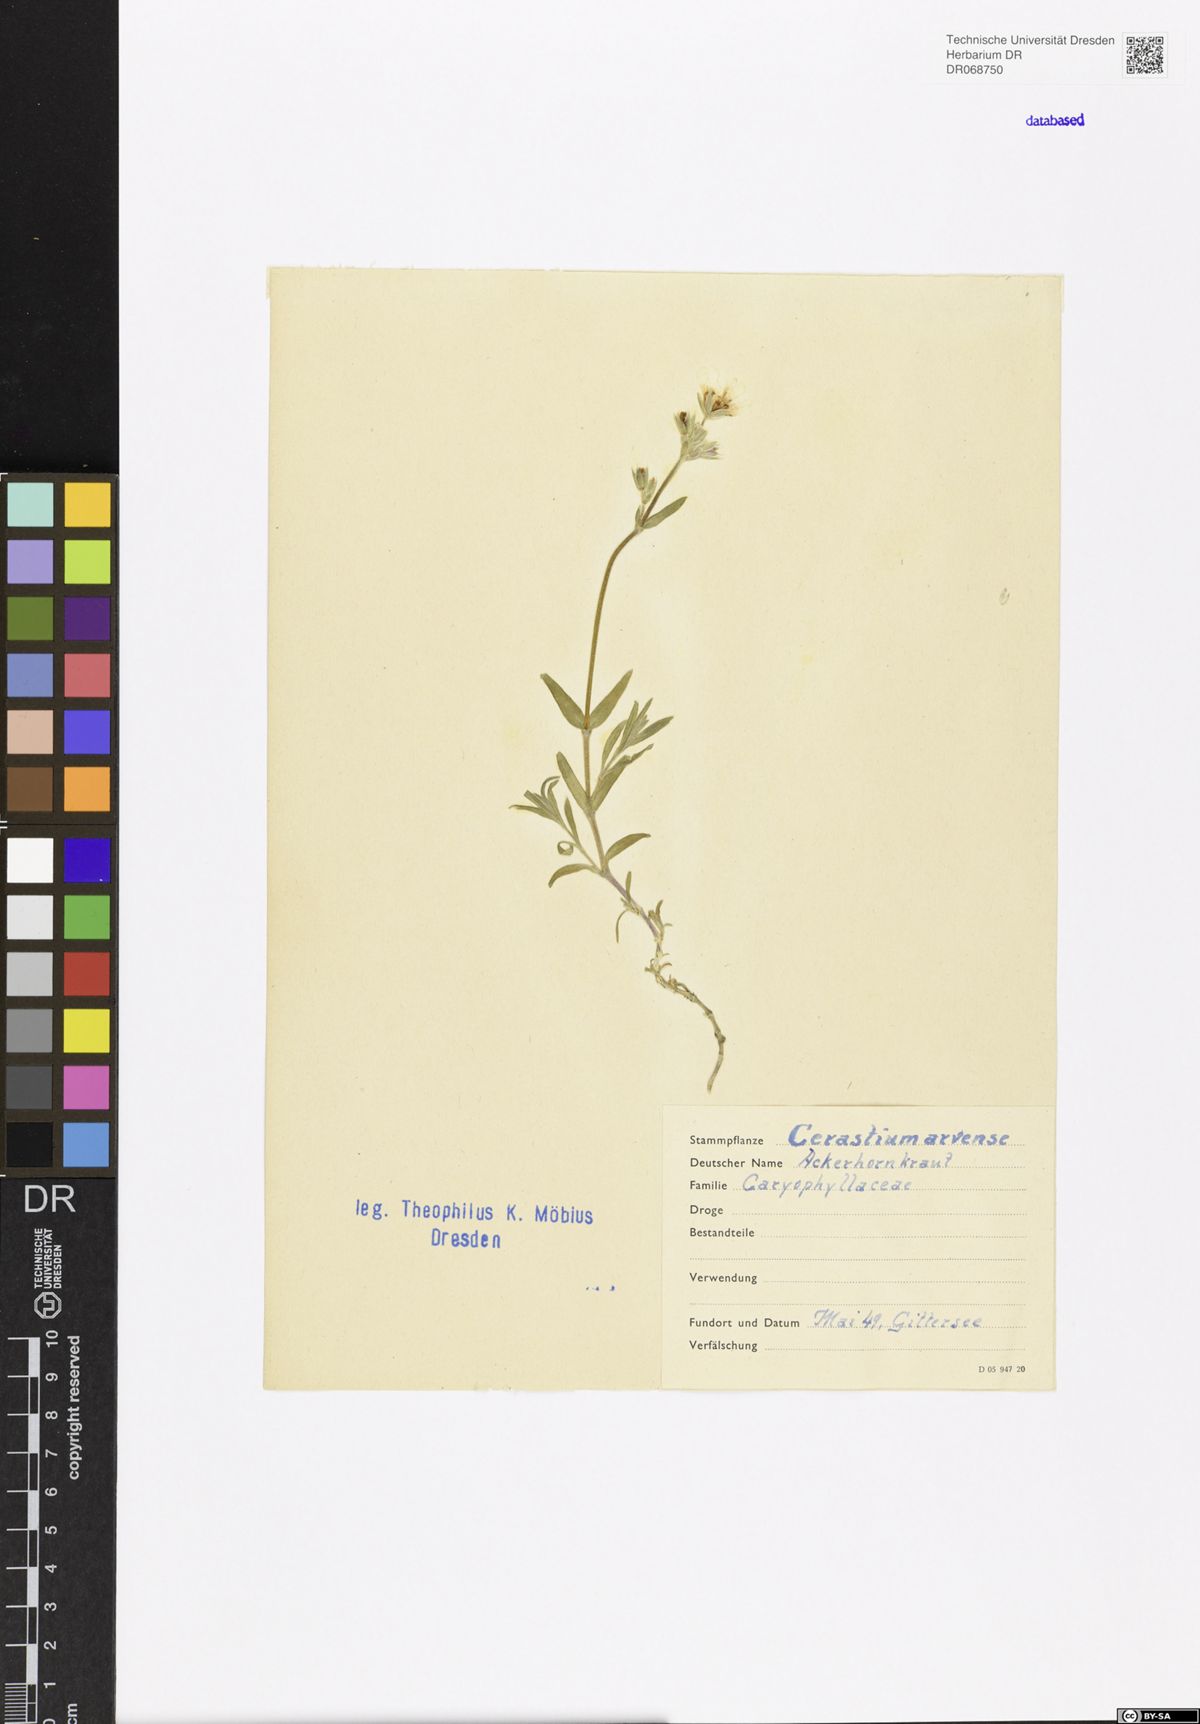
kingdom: Plantae
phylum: Tracheophyta
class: Magnoliopsida
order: Caryophyllales
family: Caryophyllaceae
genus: Cerastium
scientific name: Cerastium arvense
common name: Field mouse-ear
